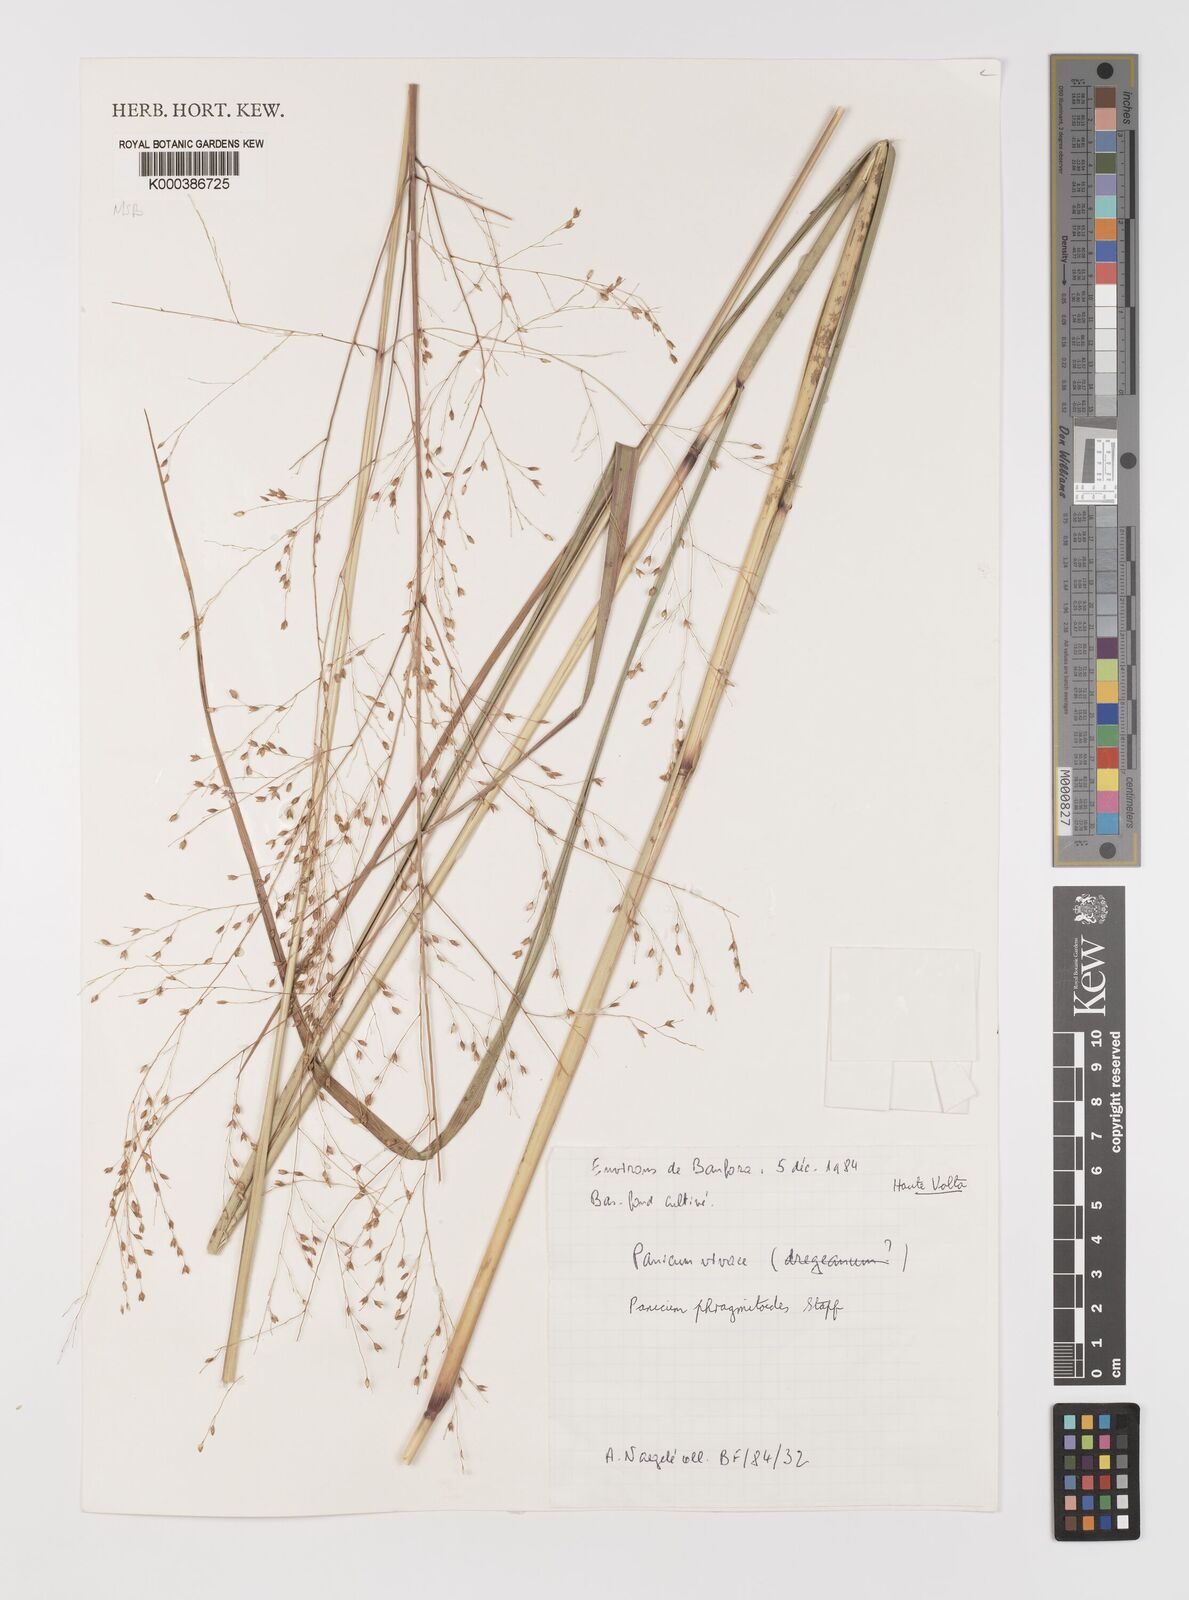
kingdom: Plantae
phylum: Tracheophyta
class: Liliopsida
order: Poales
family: Poaceae
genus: Panicum
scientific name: Panicum phragmitoides
